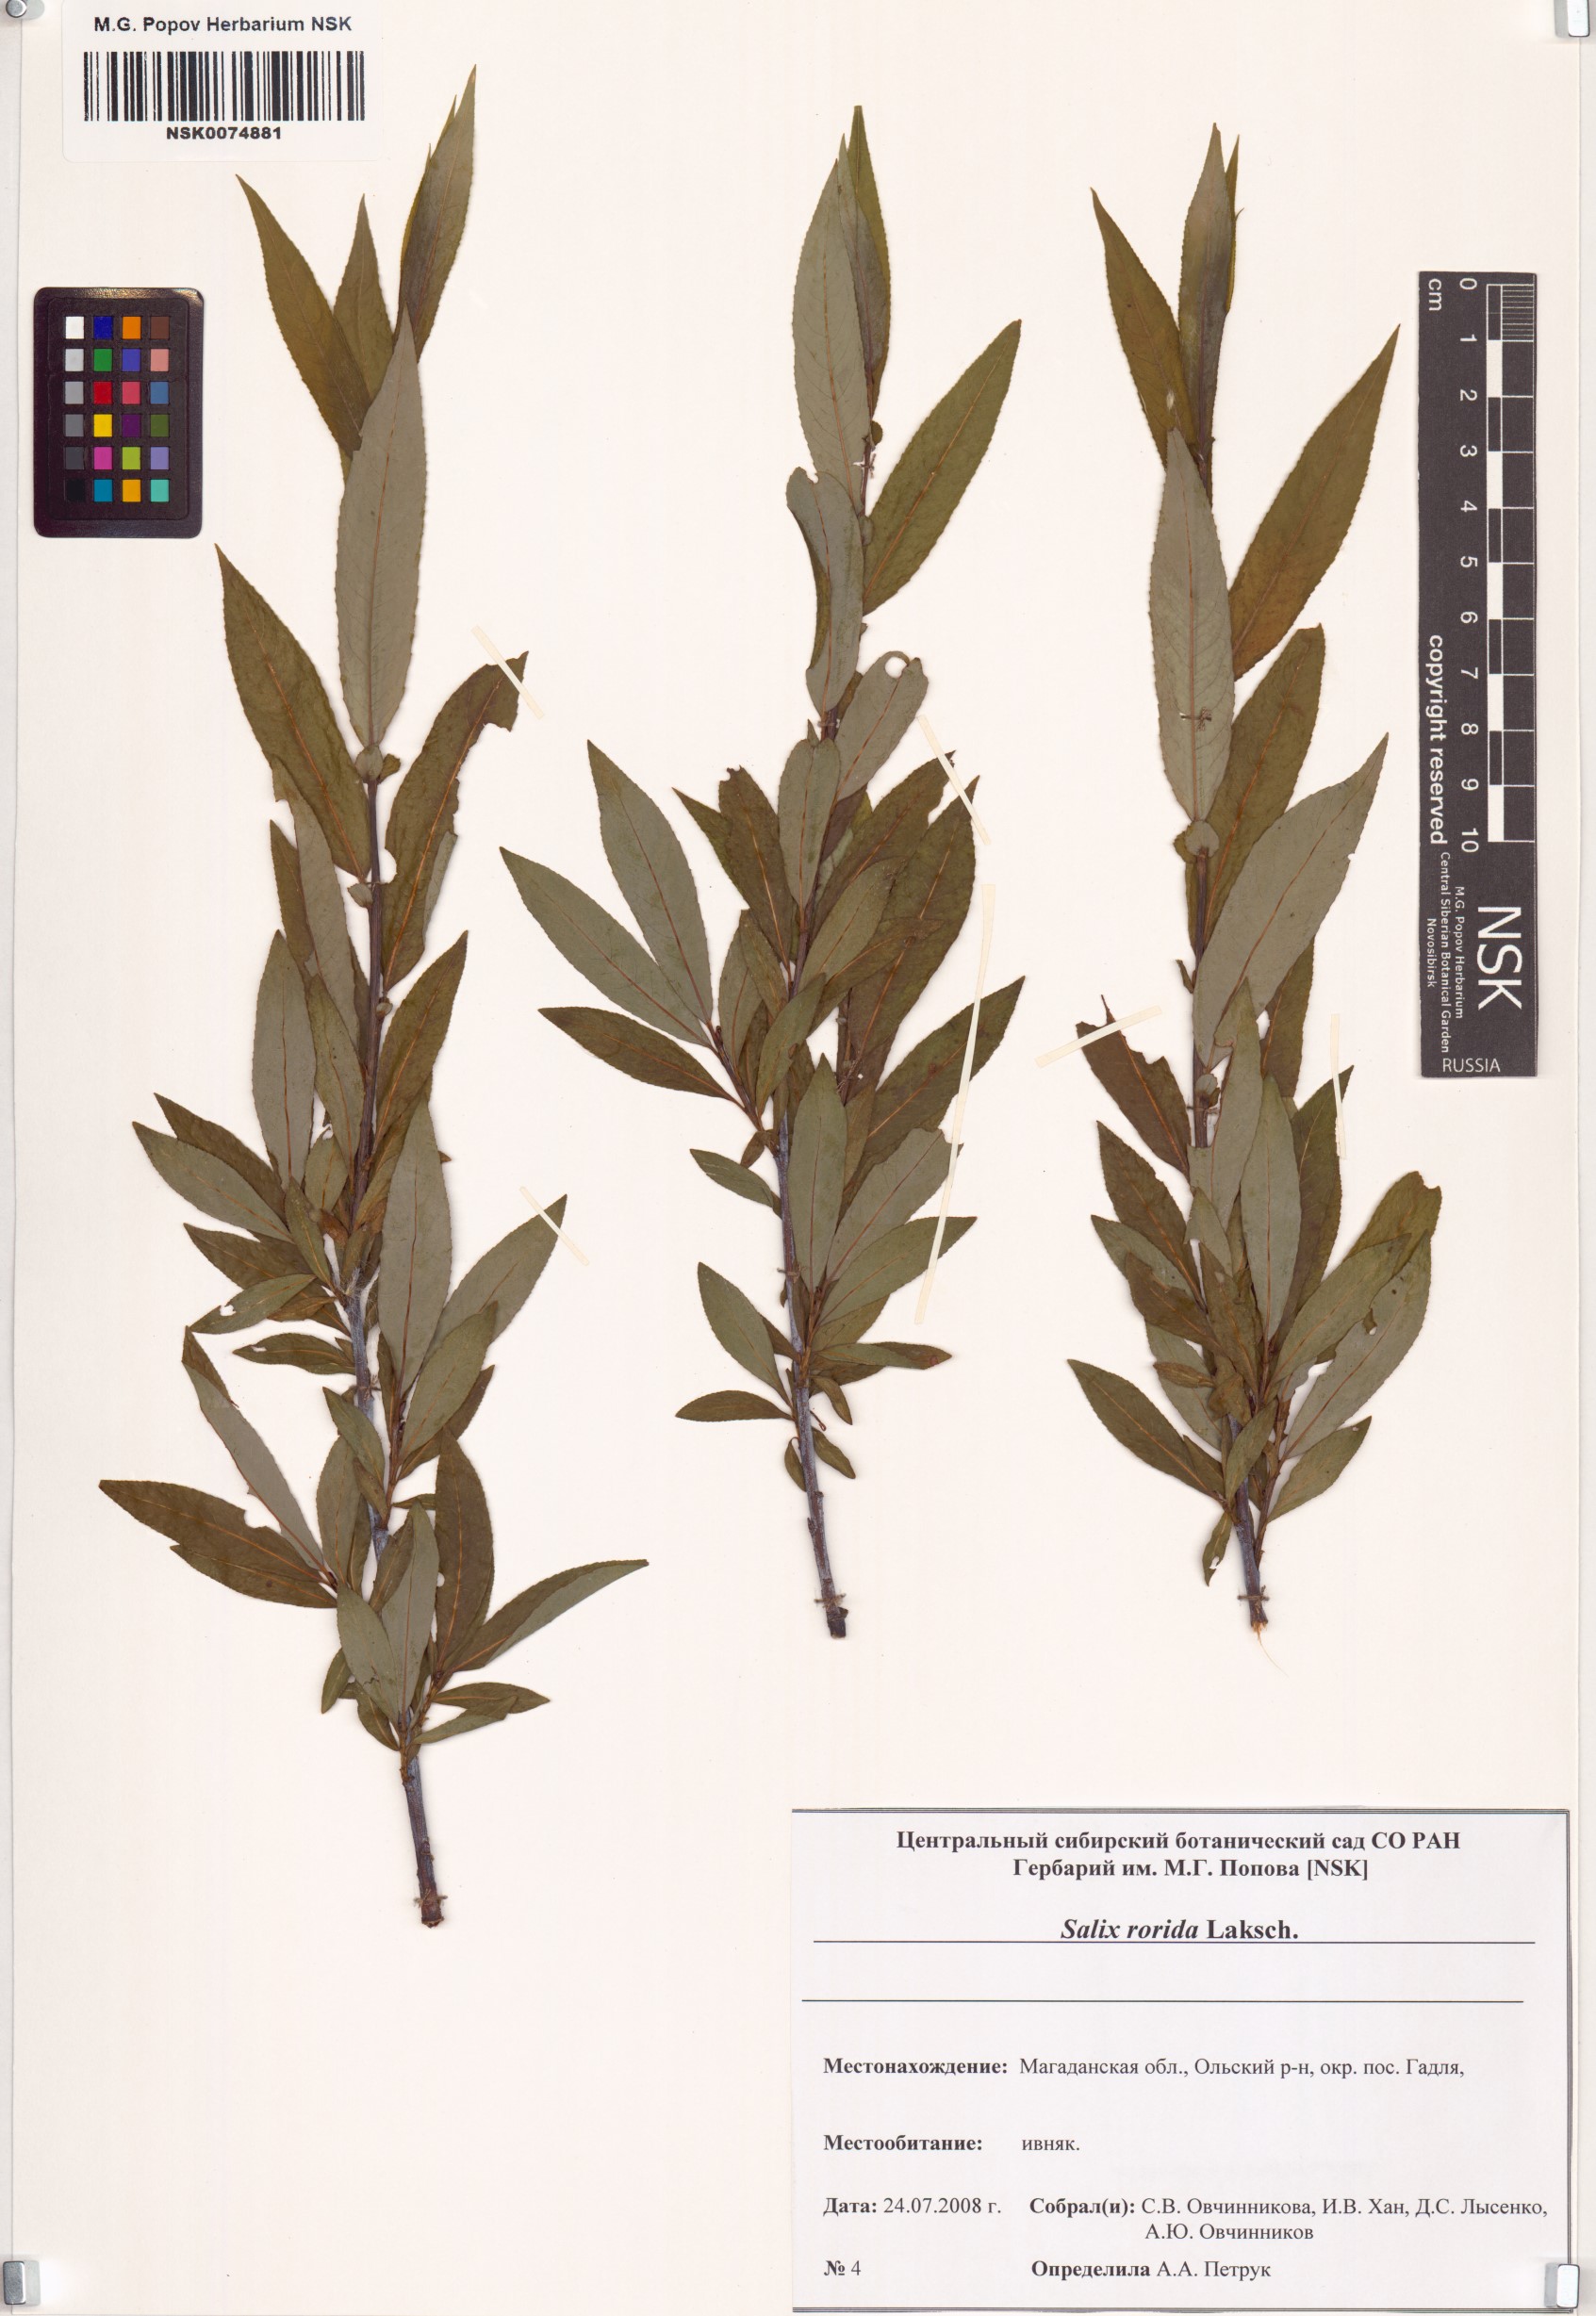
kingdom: Plantae
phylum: Tracheophyta
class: Magnoliopsida
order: Malpighiales
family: Salicaceae
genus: Salix
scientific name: Salix rorida
